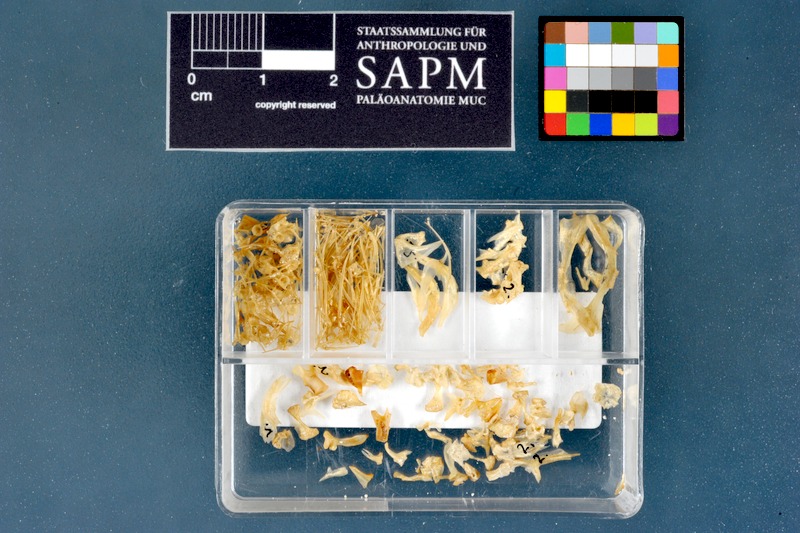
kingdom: Animalia
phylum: Chordata
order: Perciformes
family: Blenniidae
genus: Parablennius
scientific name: Parablennius sanguinolentus
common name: Black sea blenny
